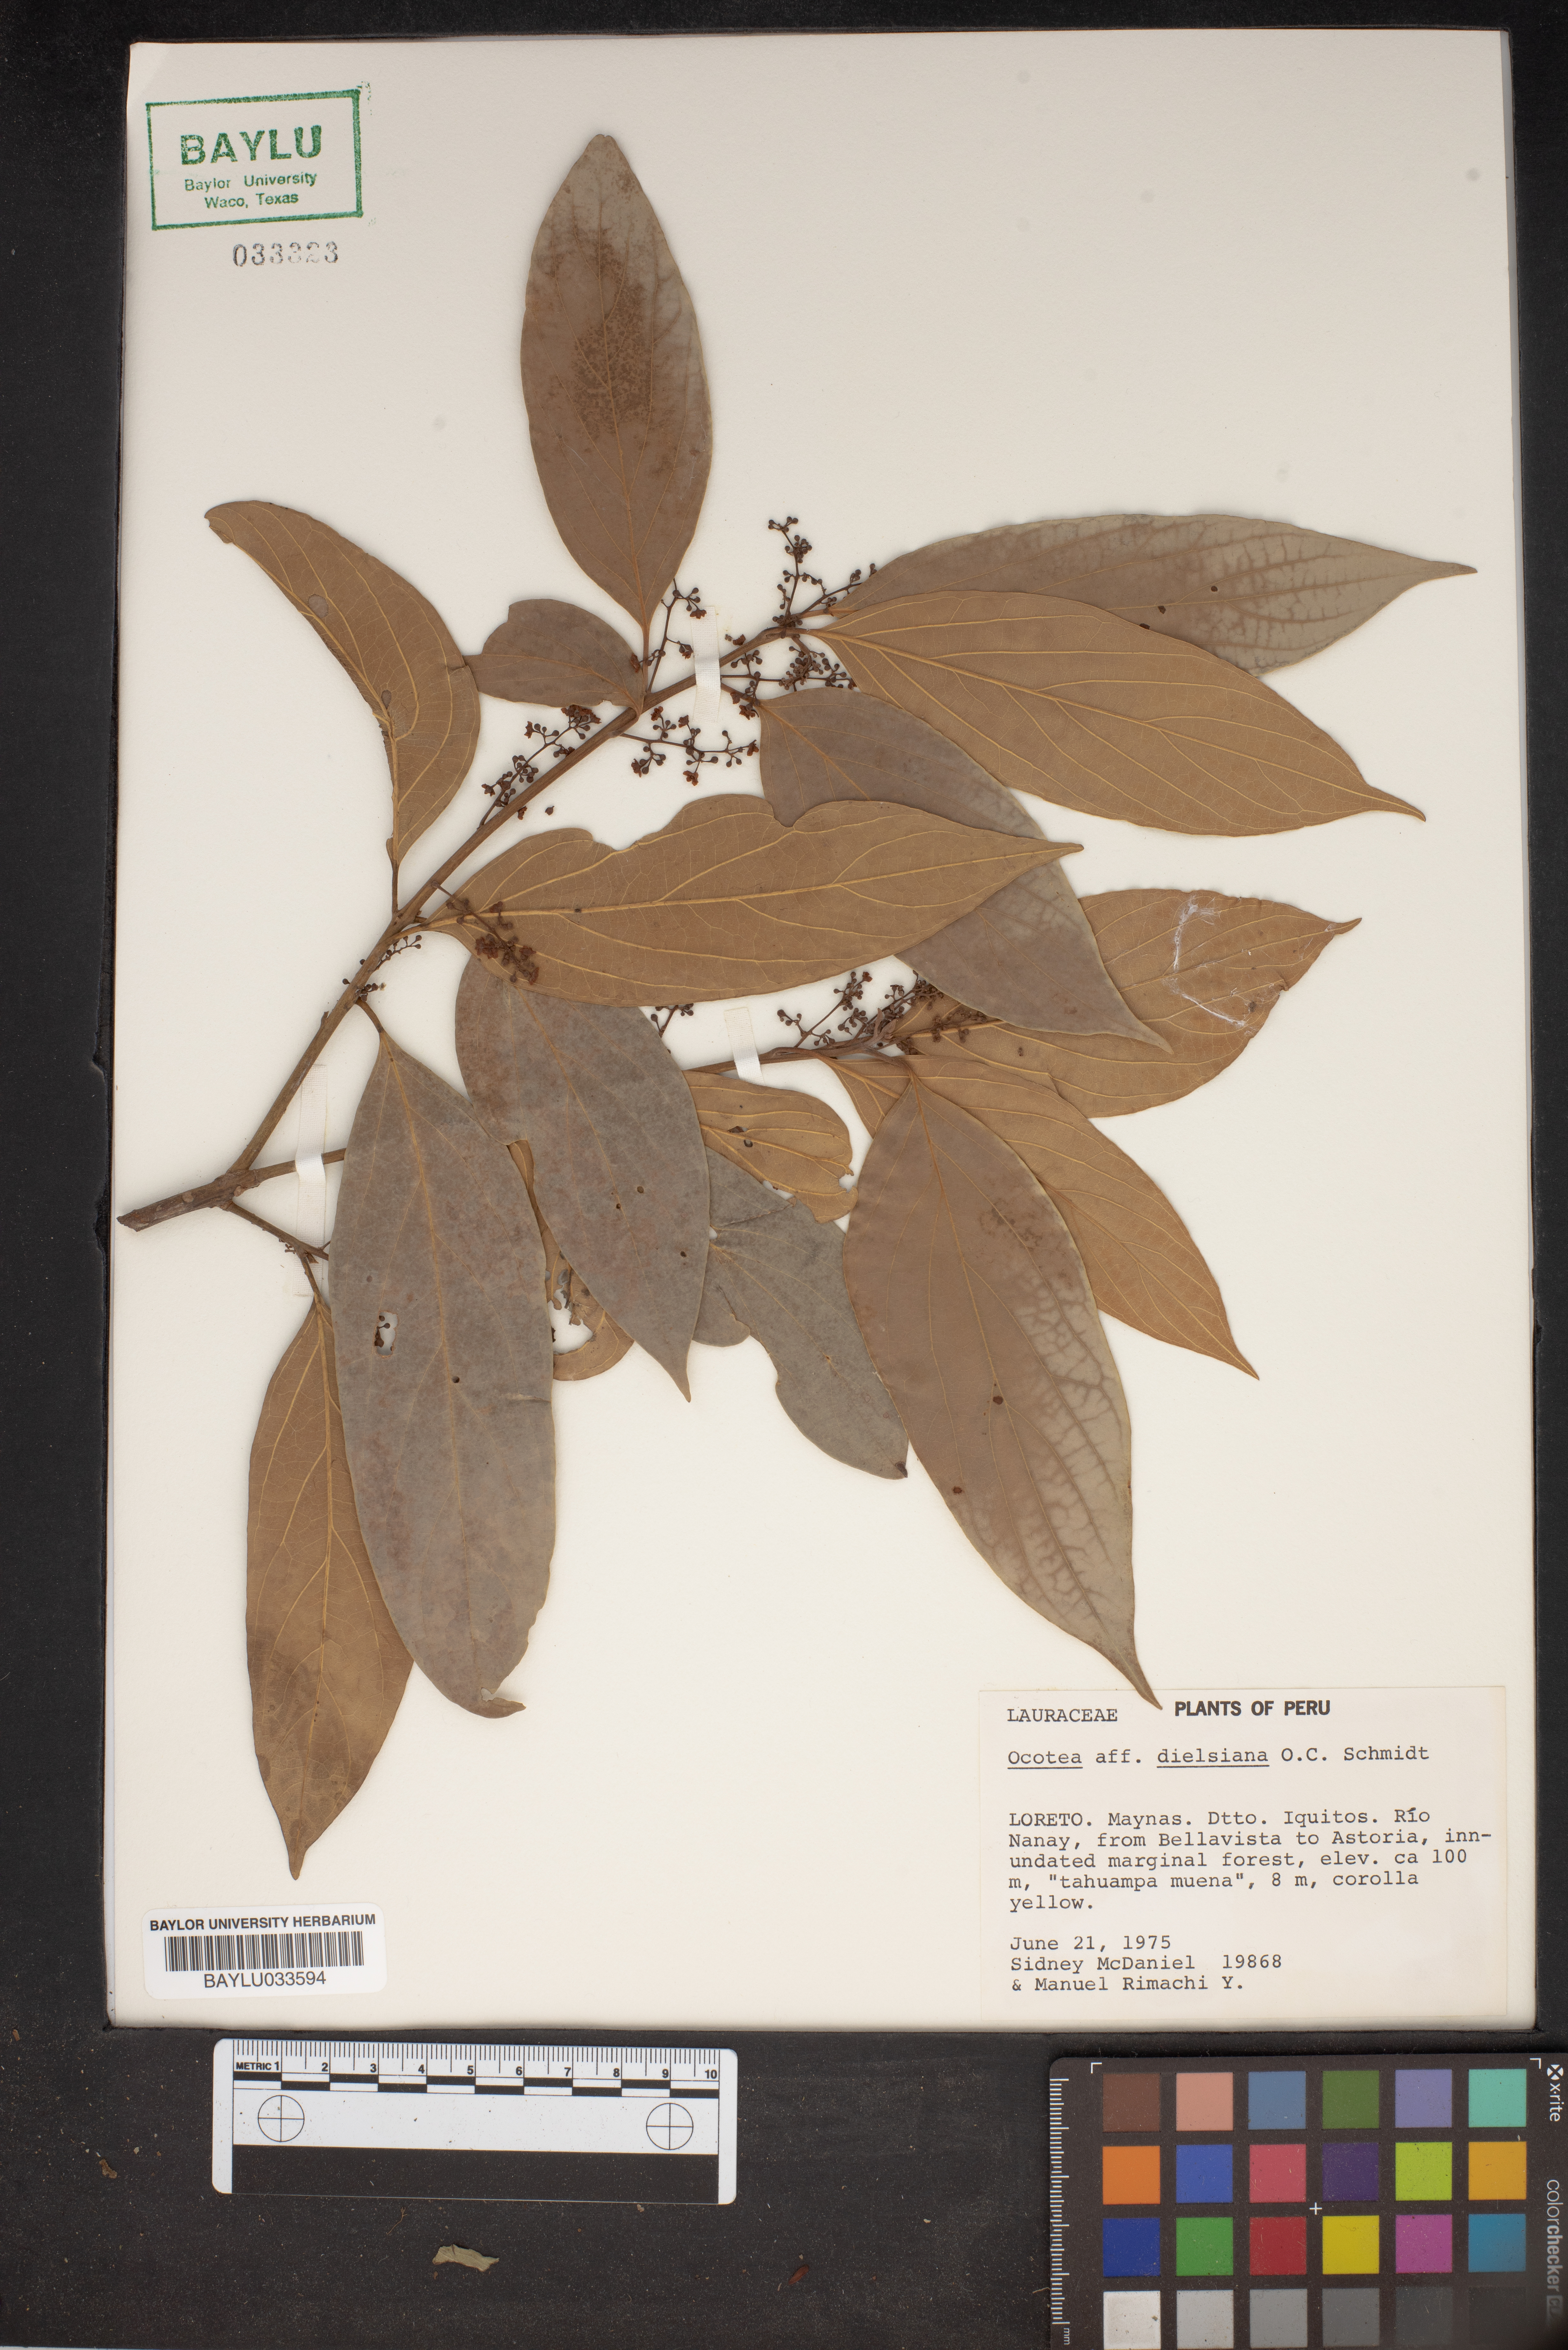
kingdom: Plantae
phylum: Tracheophyta
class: Magnoliopsida
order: Laurales
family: Lauraceae
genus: Ocotea
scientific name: Ocotea dielsiana
